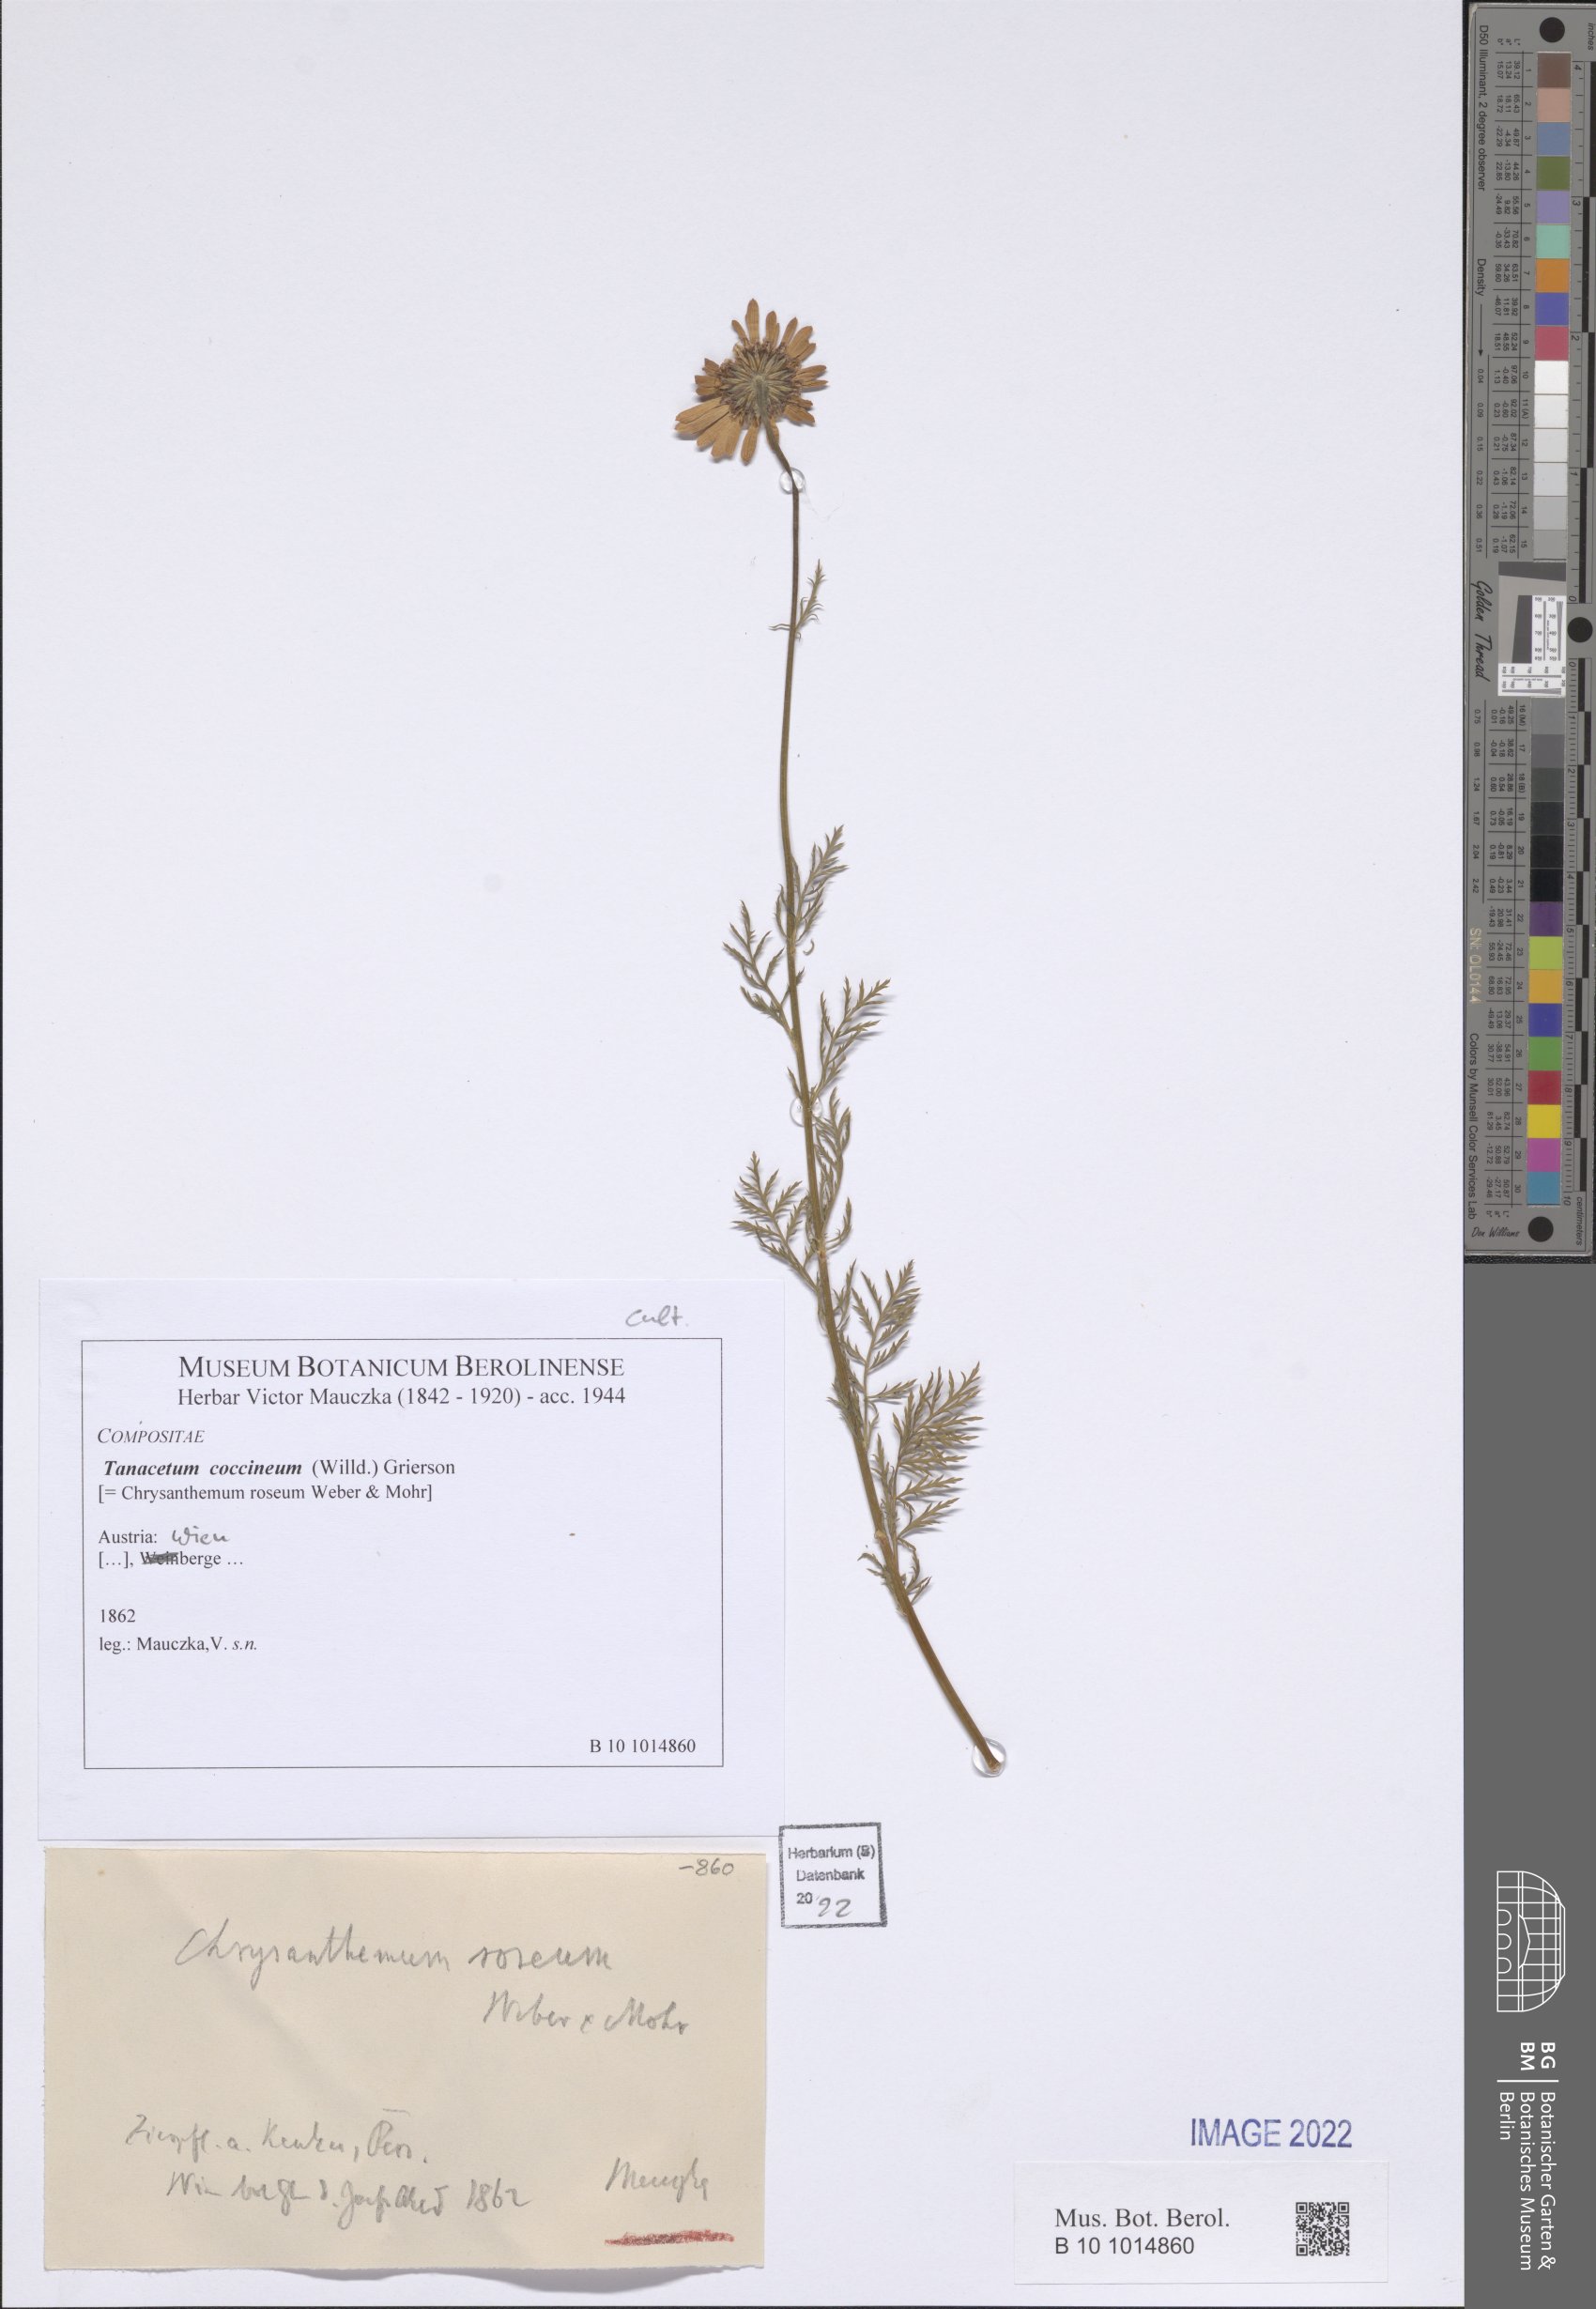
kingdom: Plantae
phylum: Tracheophyta
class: Magnoliopsida
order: Asterales
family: Asteraceae
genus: Tanacetum
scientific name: Tanacetum coccineum
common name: Pyrethum daisy
